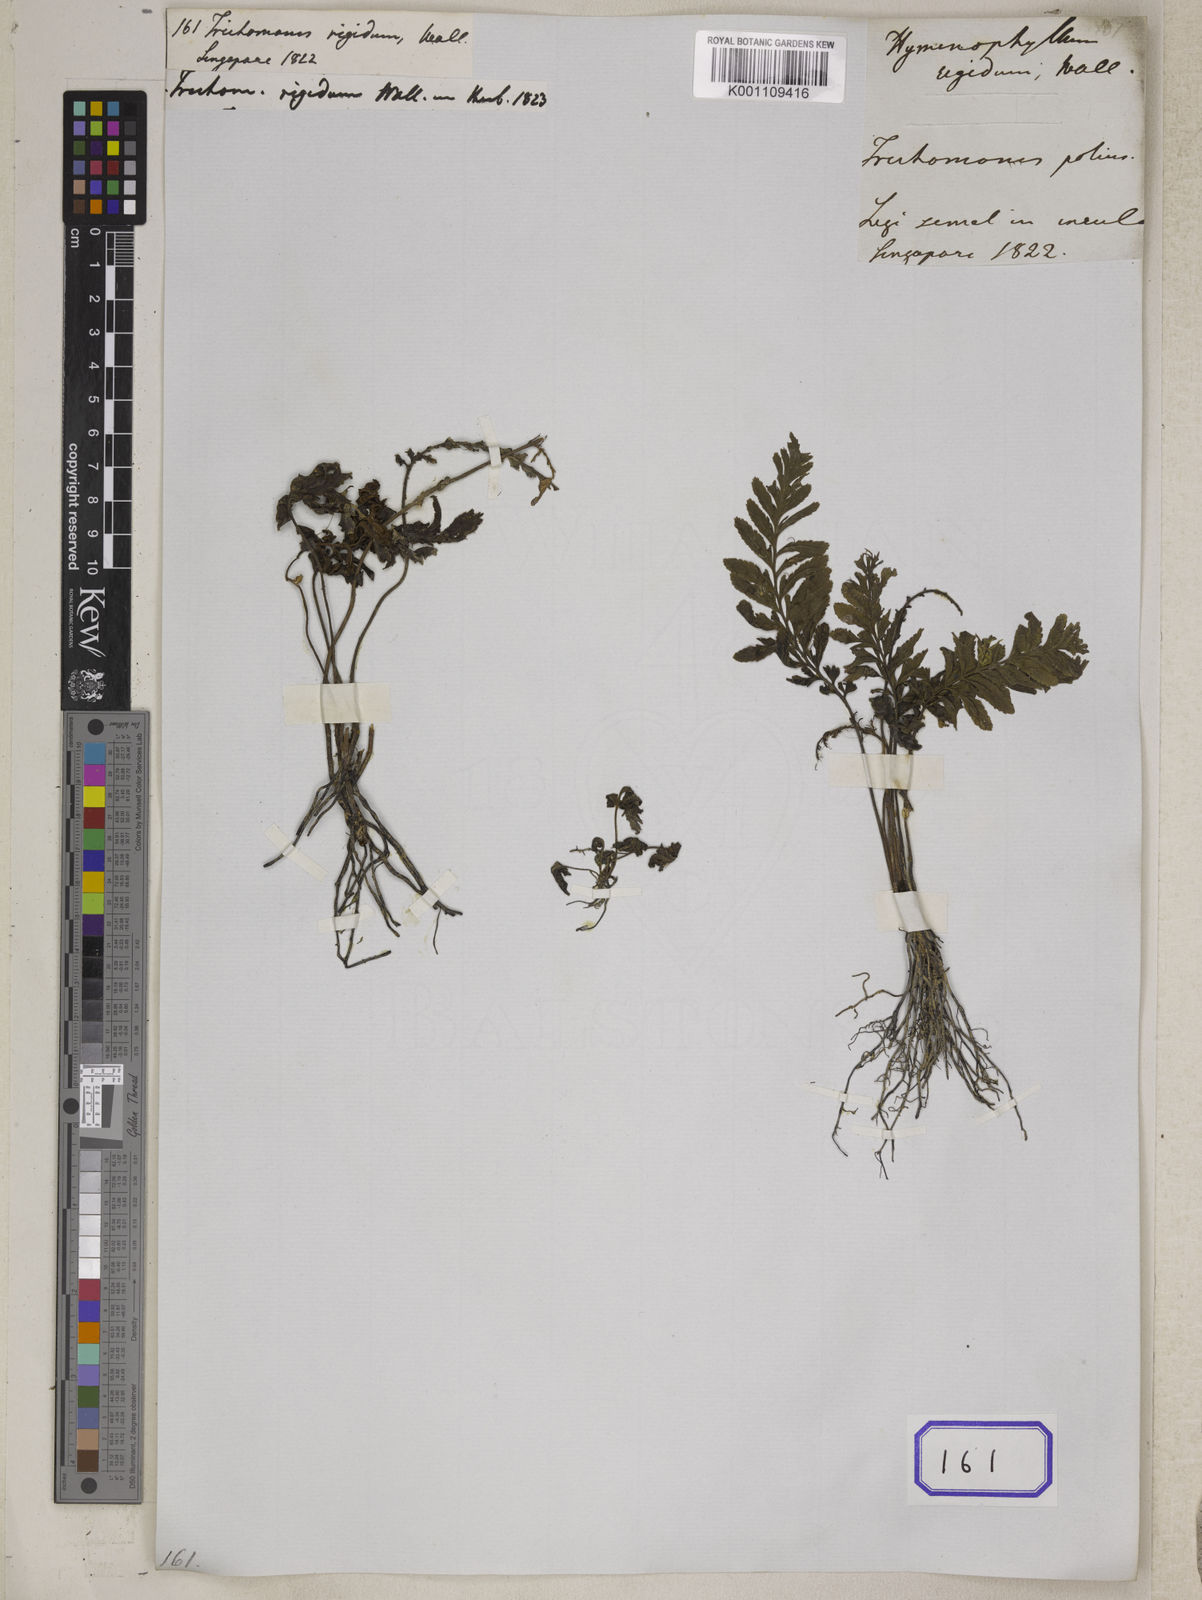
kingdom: Plantae
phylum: Tracheophyta
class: Polypodiopsida
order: Hymenophyllales
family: Hymenophyllaceae
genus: Cephalomanes
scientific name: Cephalomanes javanicum
